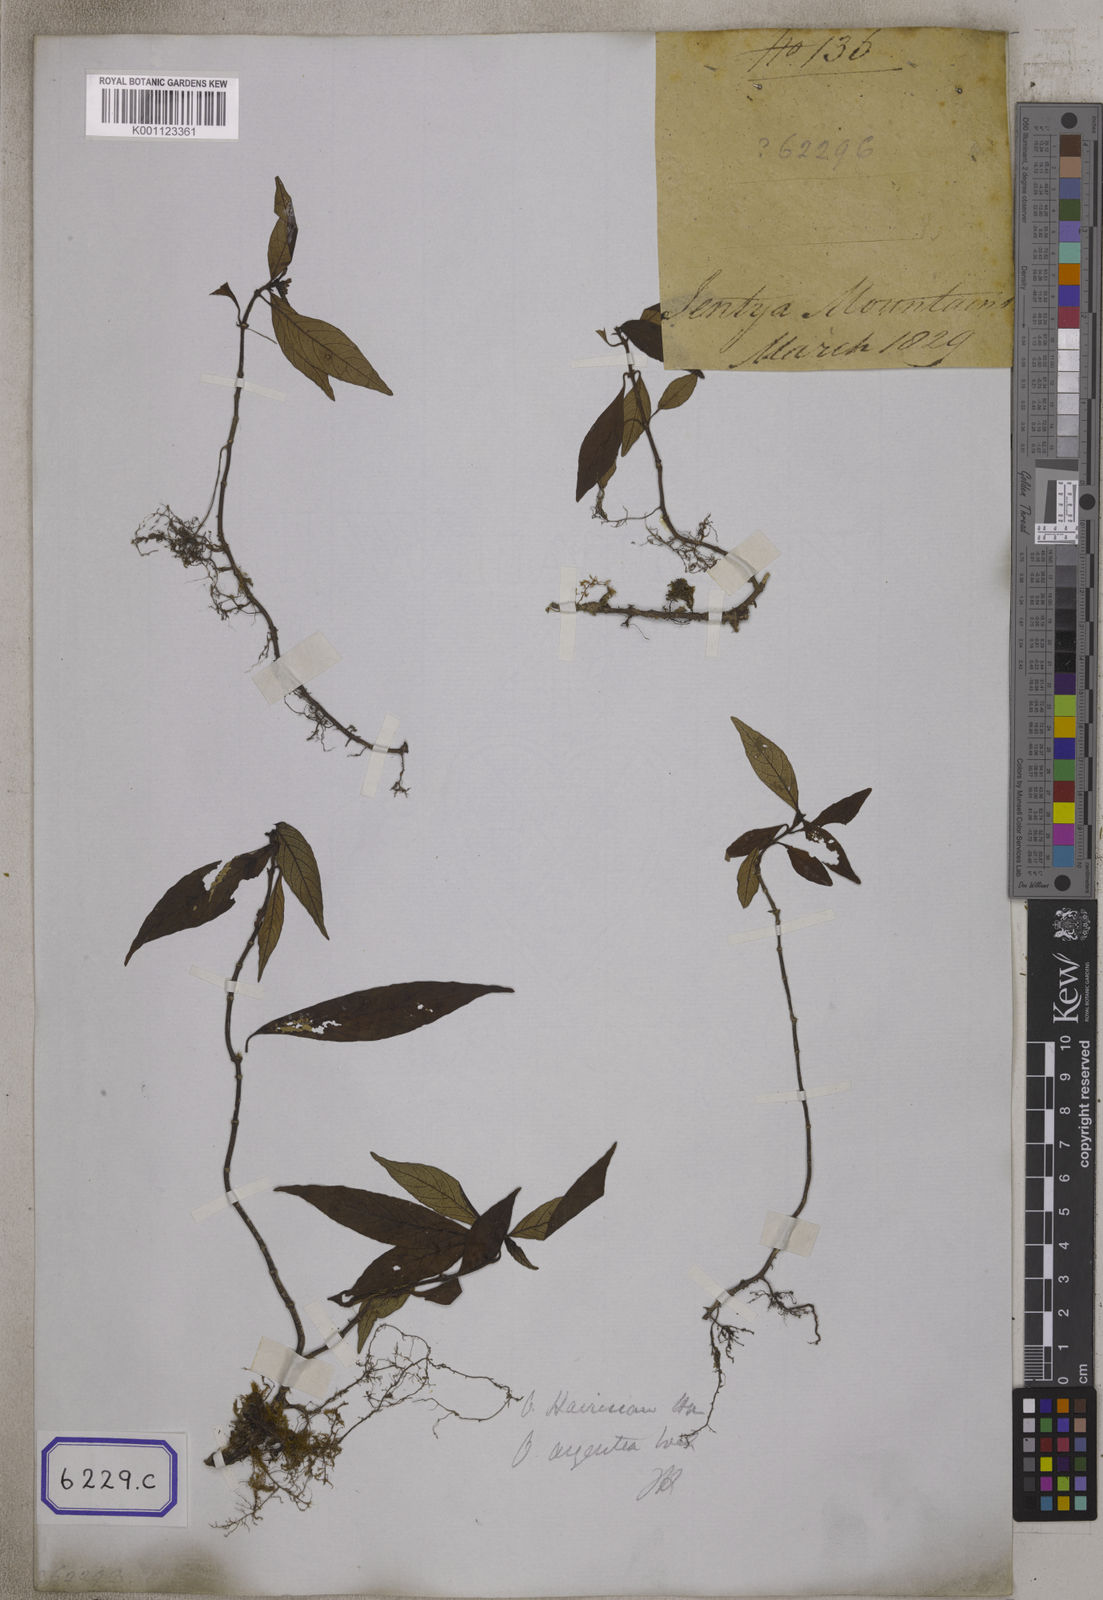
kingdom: Plantae
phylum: Tracheophyta
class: Magnoliopsida
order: Gentianales
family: Rubiaceae
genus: Ophiorrhiza
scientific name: Ophiorrhiza
